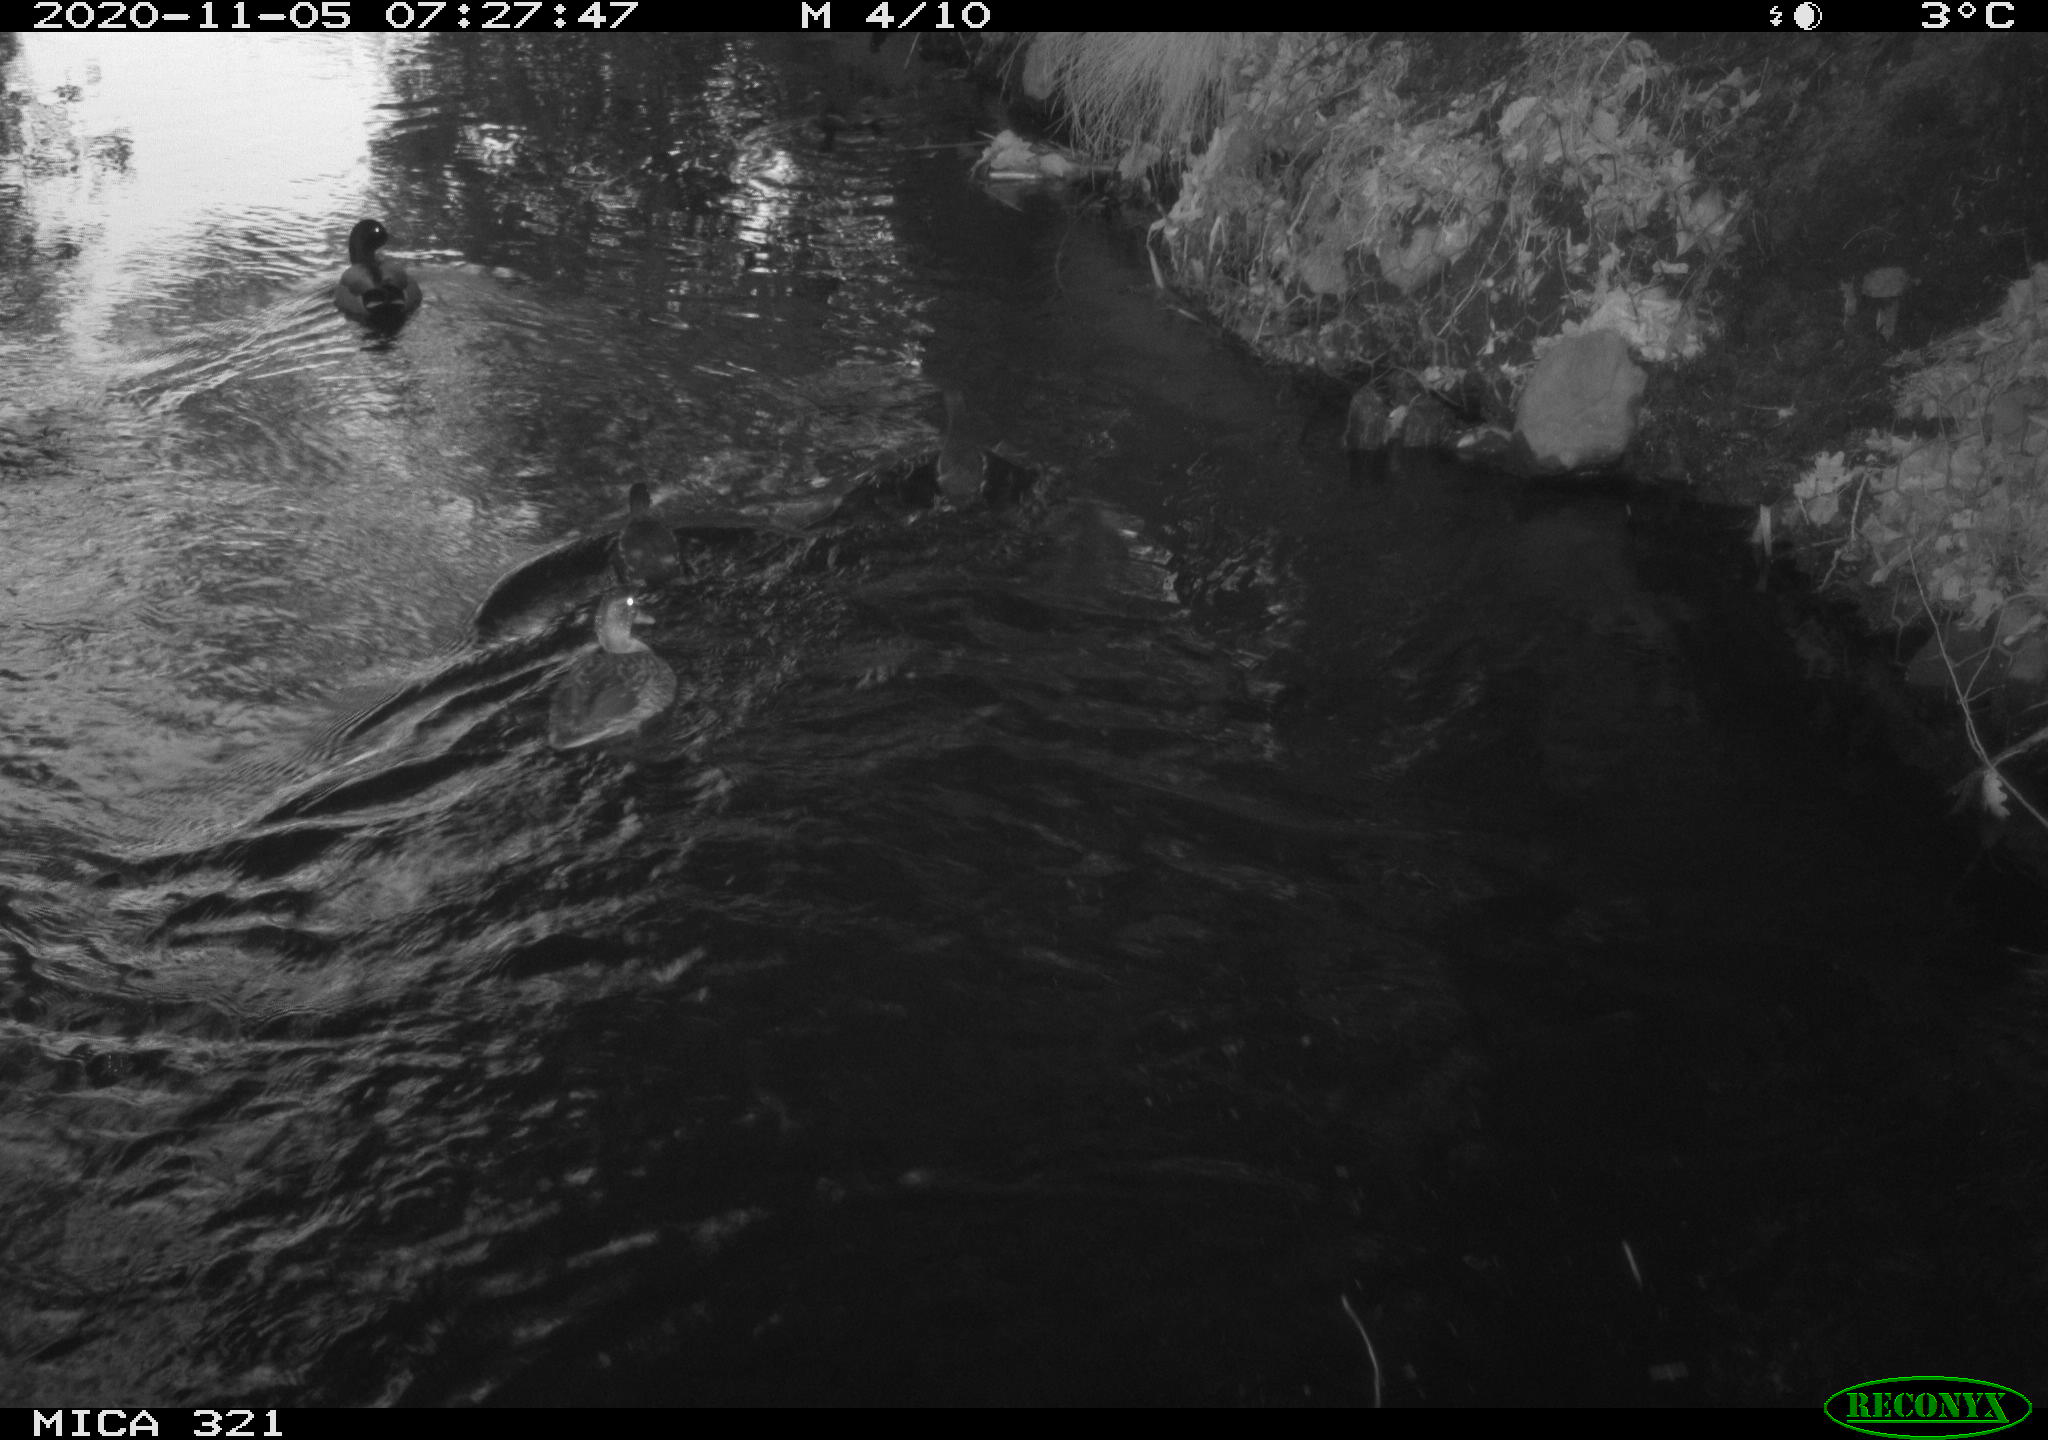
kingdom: Animalia
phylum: Chordata
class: Aves
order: Anseriformes
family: Anatidae
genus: Anas
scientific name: Anas platyrhynchos
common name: Mallard
